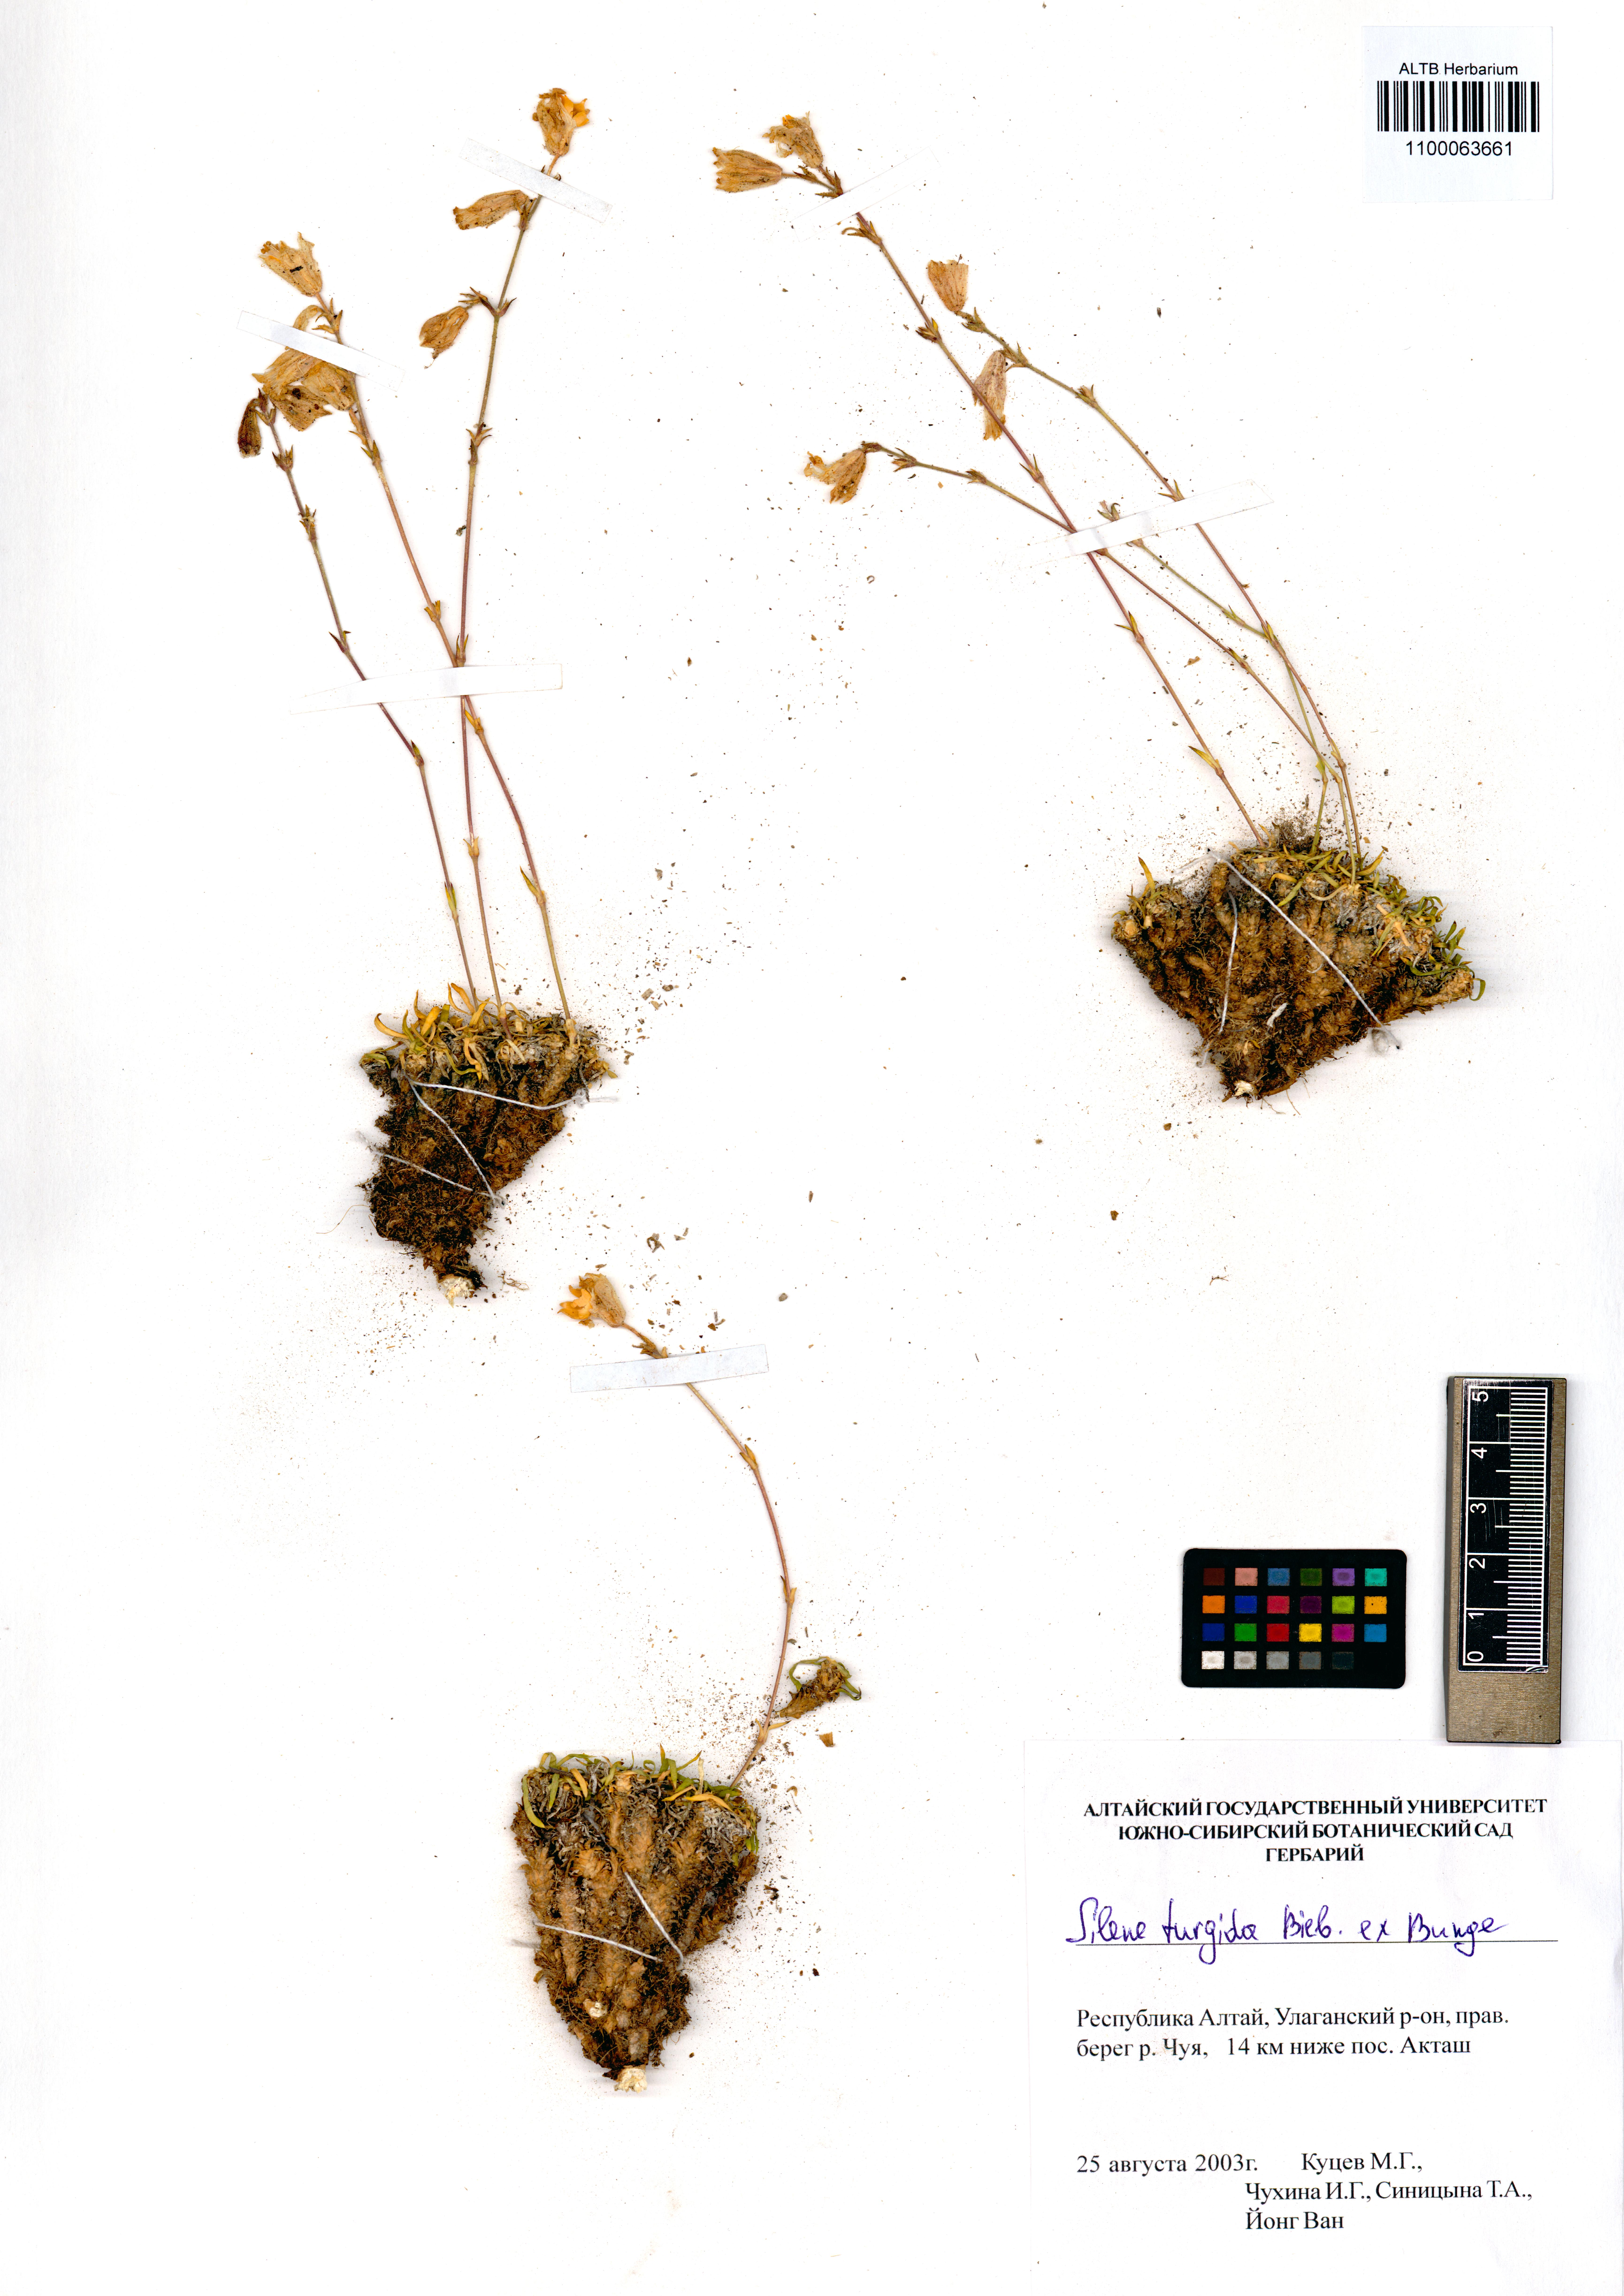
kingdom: Plantae
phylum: Tracheophyta
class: Magnoliopsida
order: Caryophyllales
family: Caryophyllaceae
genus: Silene
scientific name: Silene turgida
